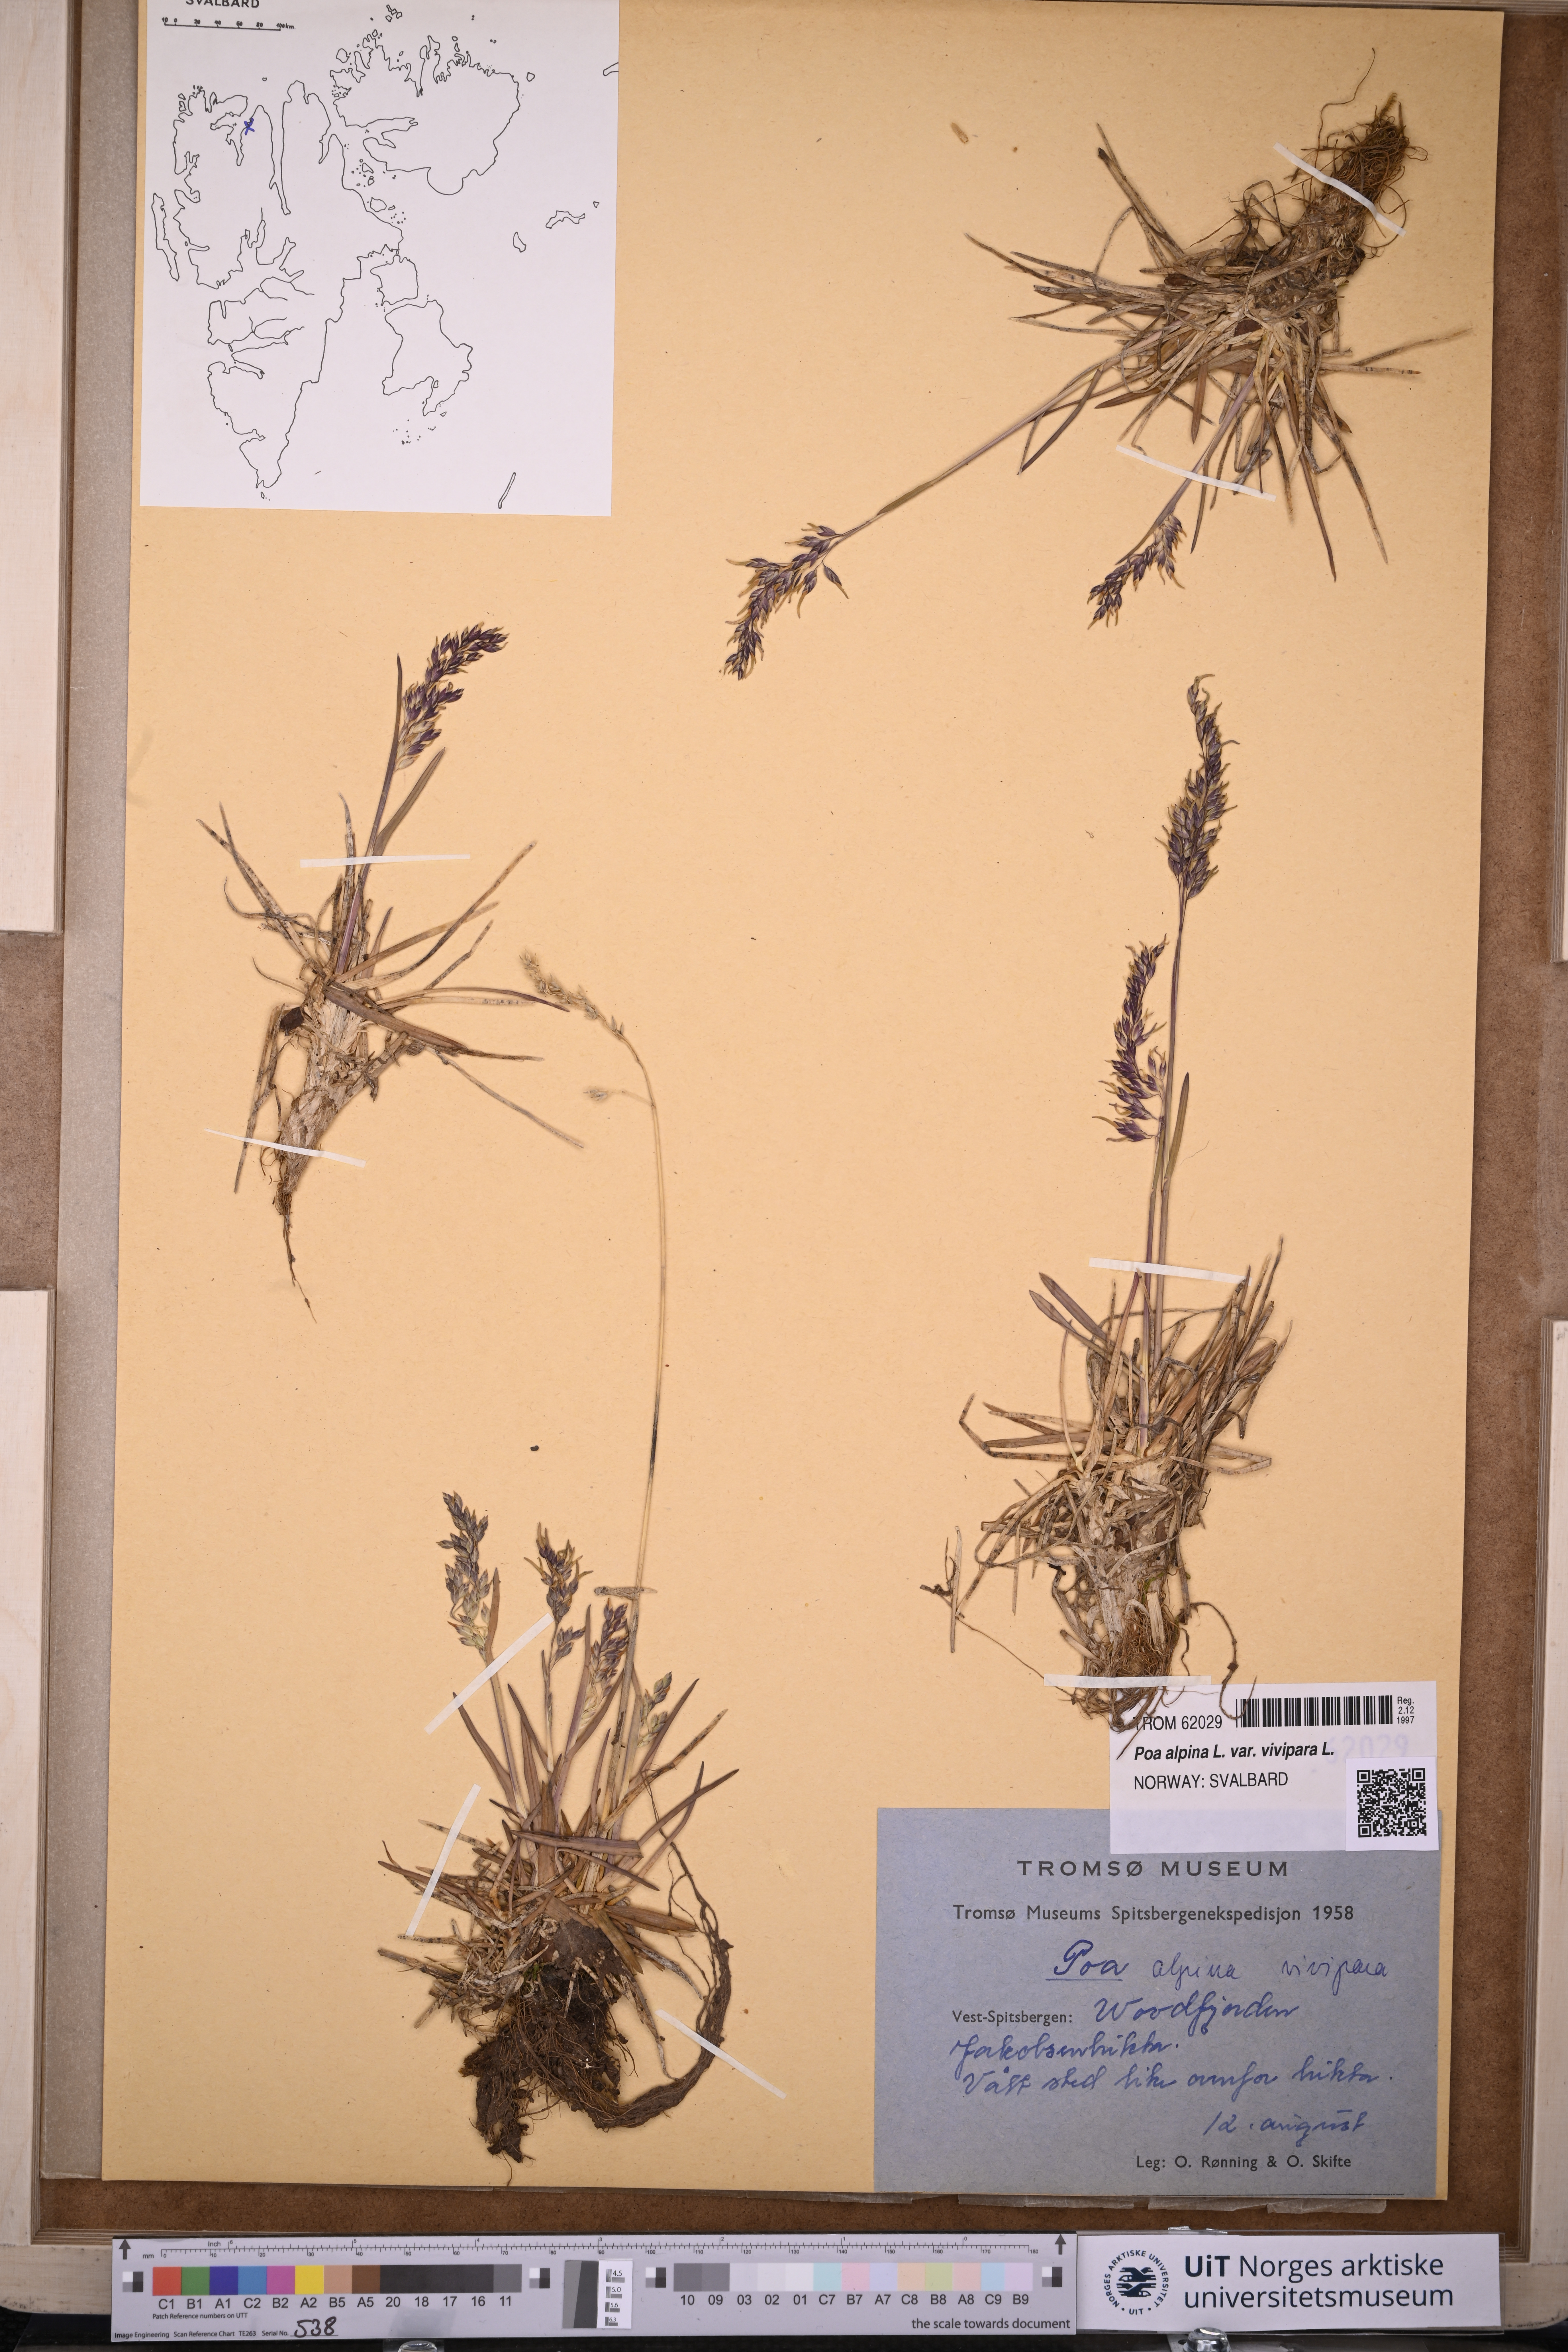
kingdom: Plantae
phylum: Tracheophyta
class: Liliopsida
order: Poales
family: Poaceae
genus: Poa
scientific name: Poa alpina
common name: Alpine bluegrass
